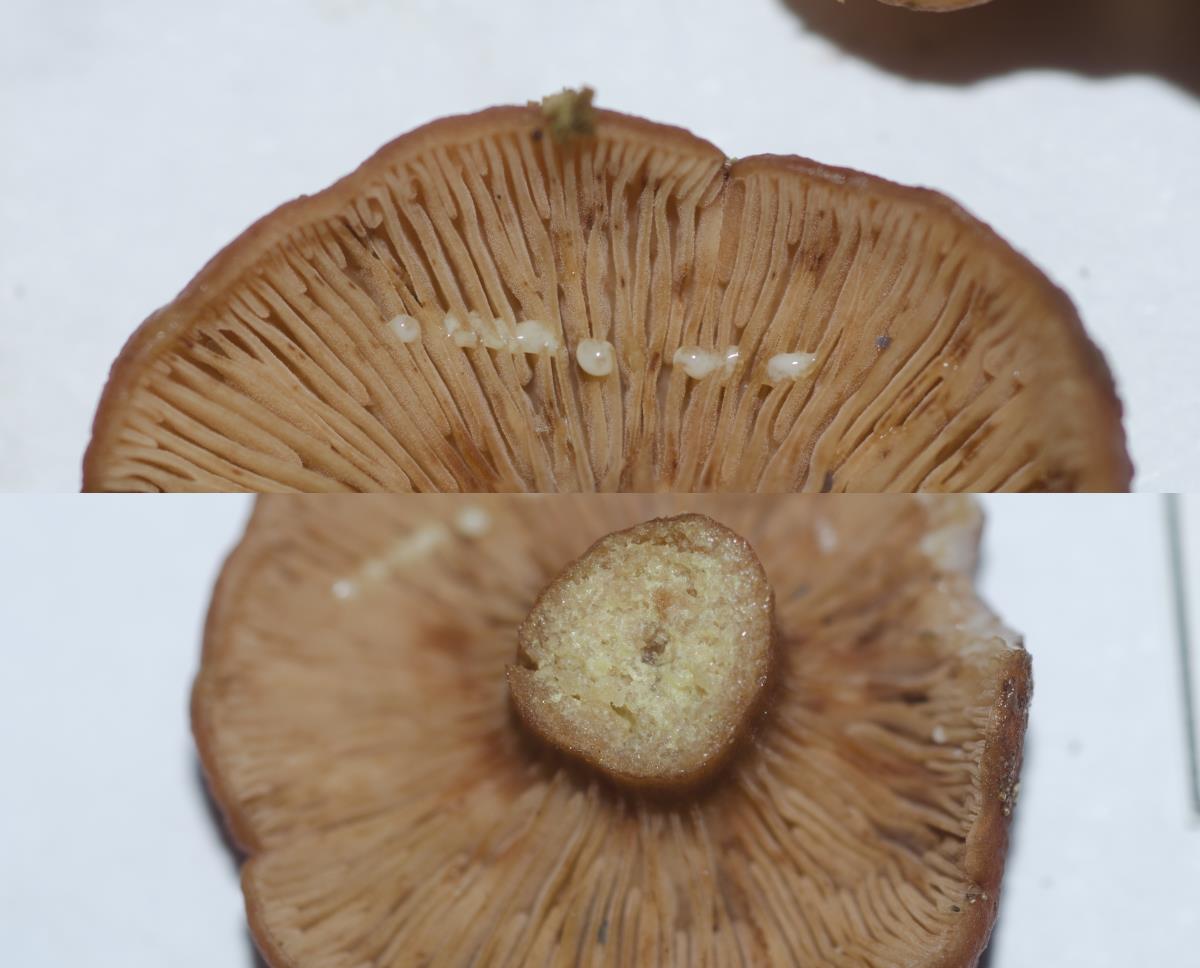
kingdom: Fungi
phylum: Basidiomycota
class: Agaricomycetes
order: Russulales
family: Russulaceae
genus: Lactarius
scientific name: Lactarius
